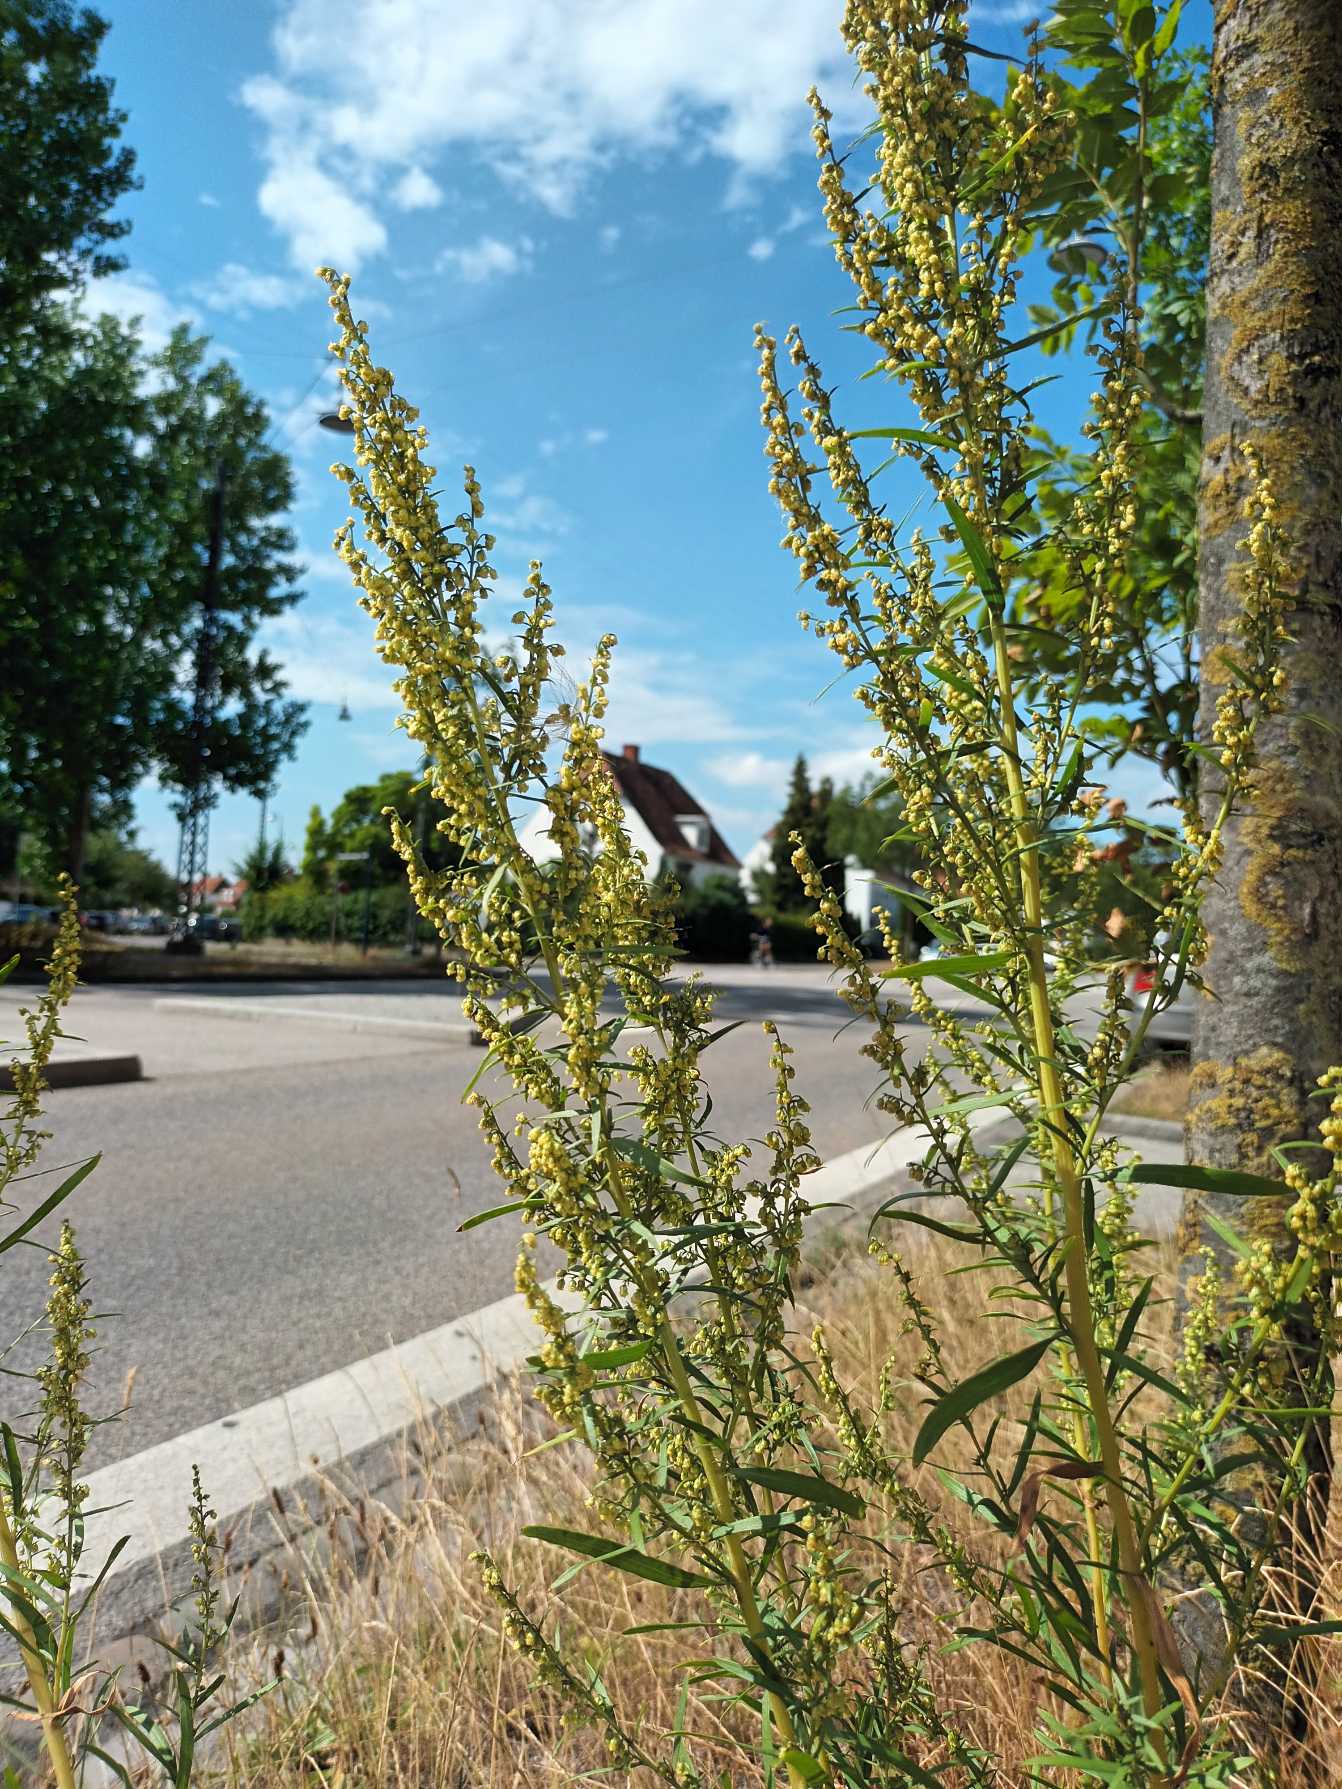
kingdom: Plantae
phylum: Tracheophyta
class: Magnoliopsida
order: Asterales
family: Asteraceae
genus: Artemisia
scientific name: Artemisia dracunculus
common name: Esdragon
